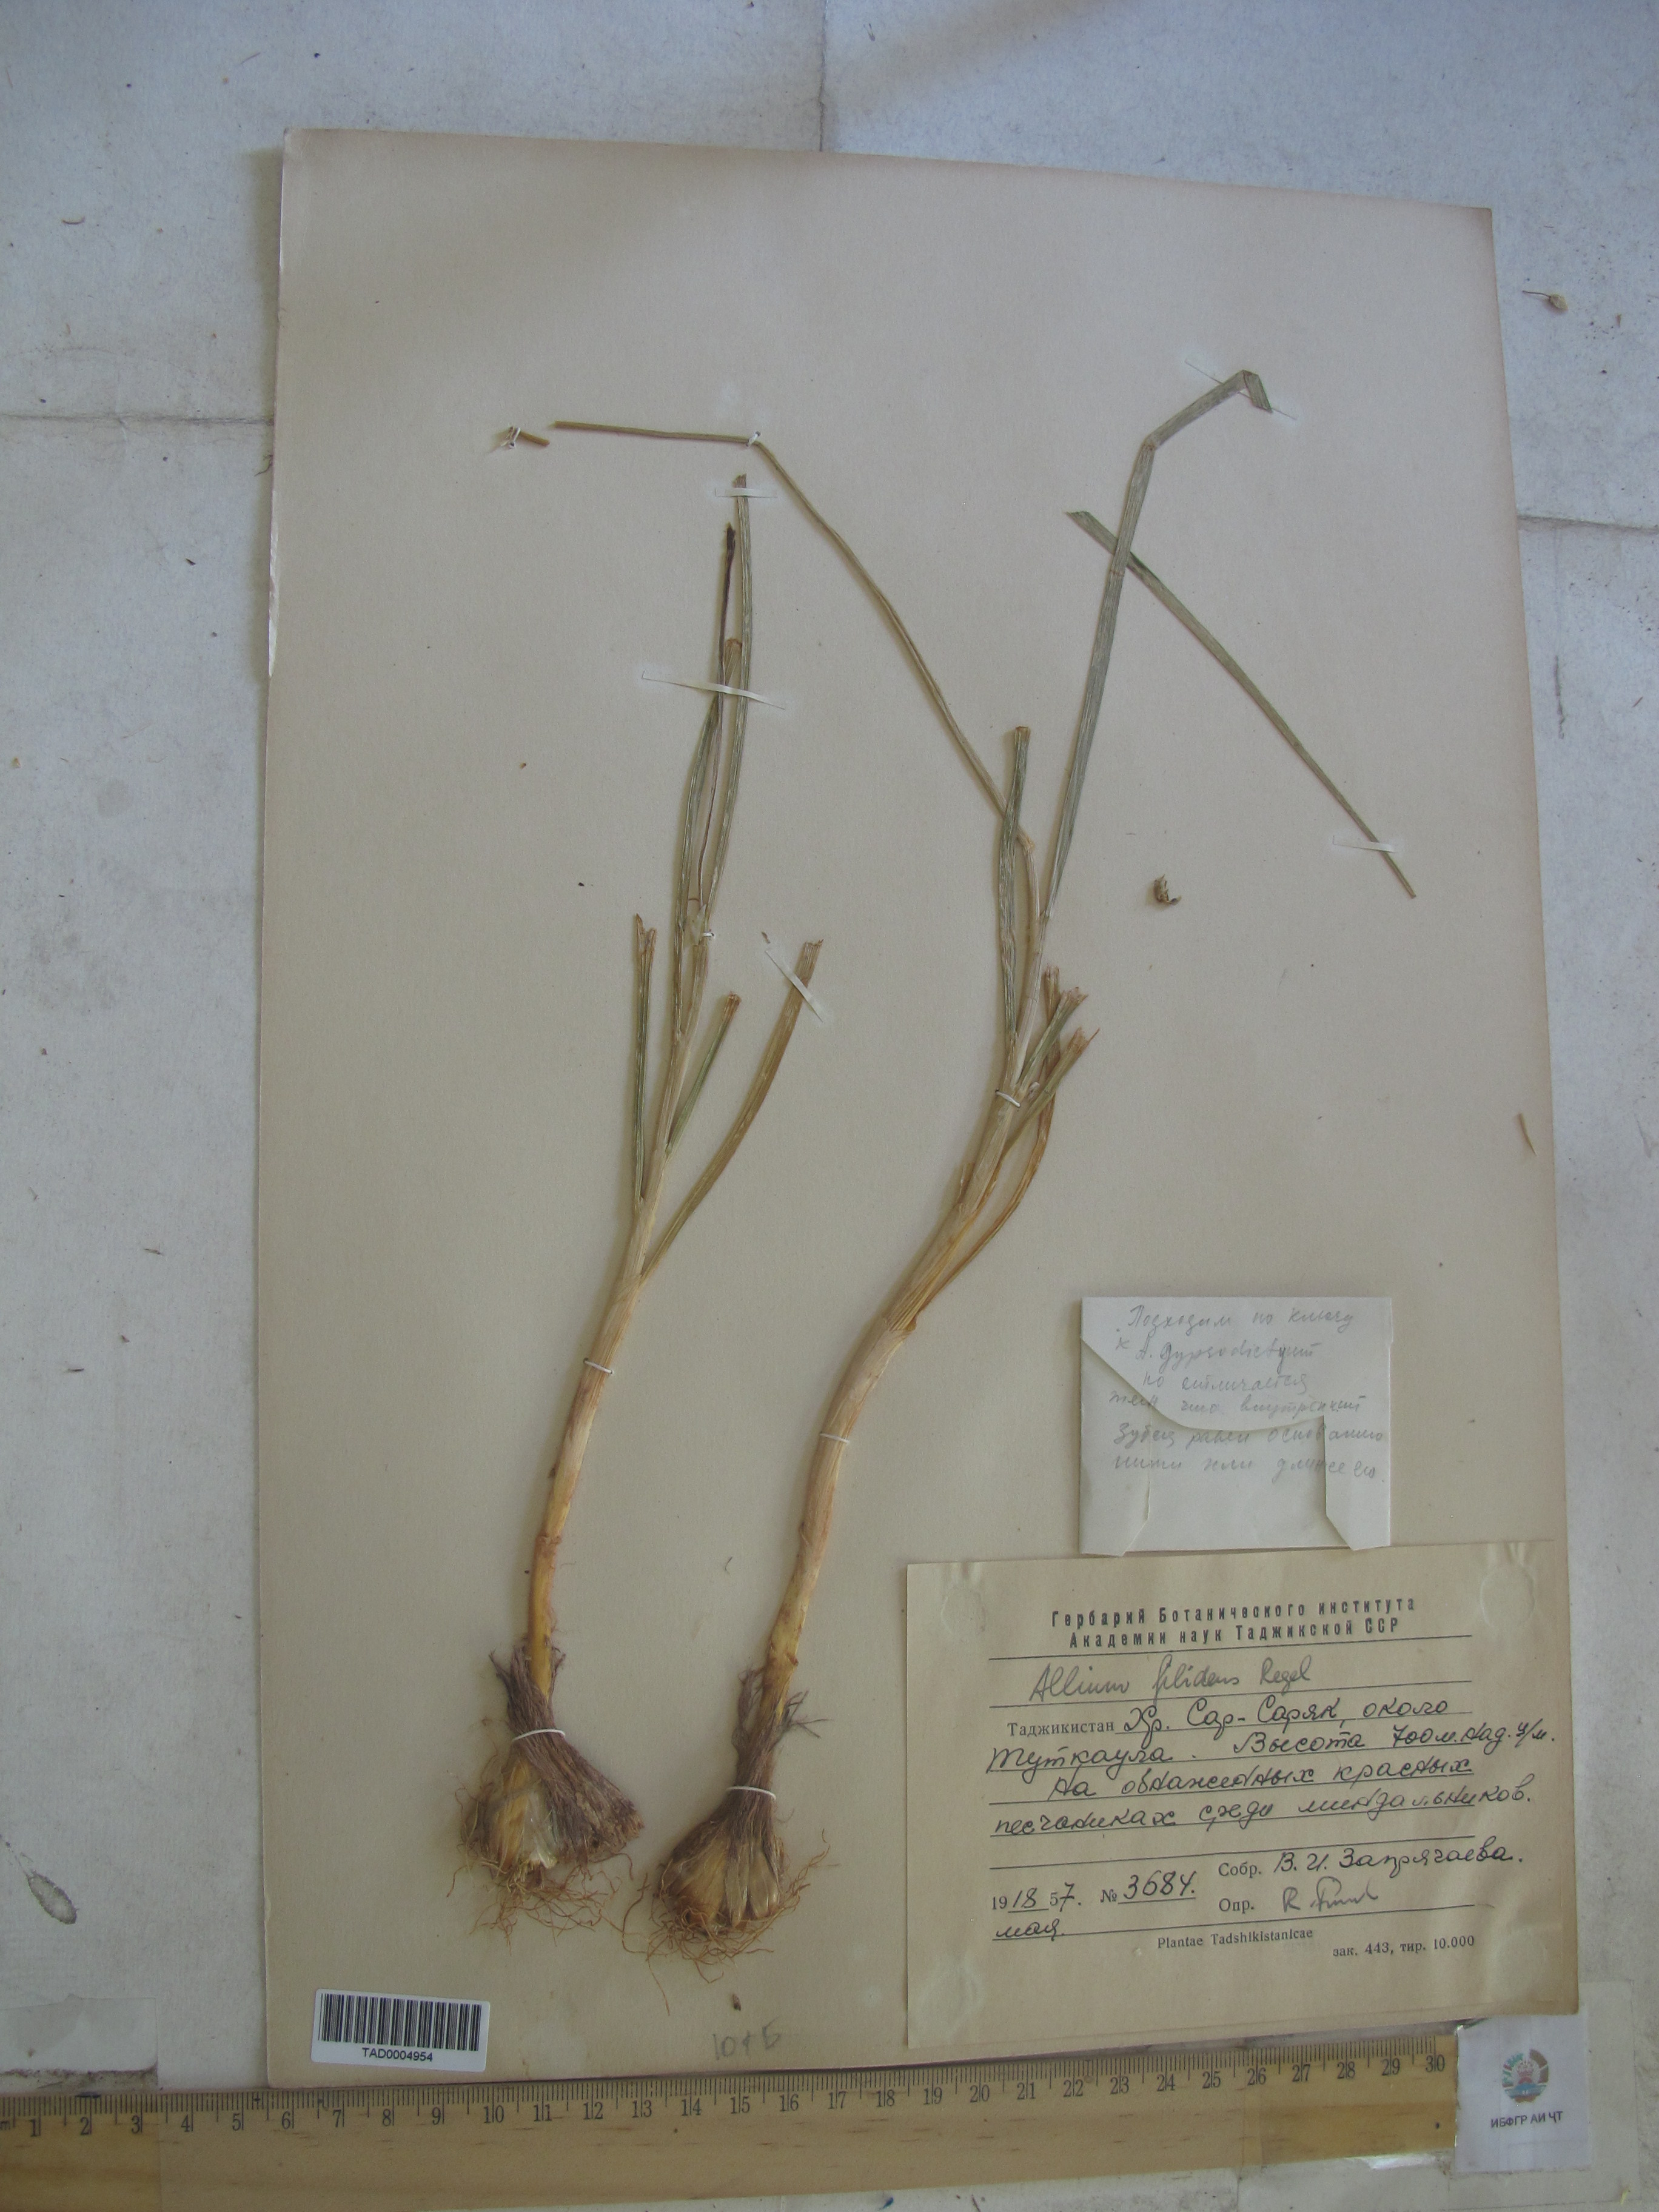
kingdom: Plantae
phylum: Tracheophyta
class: Liliopsida
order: Asparagales
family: Amaryllidaceae
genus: Allium
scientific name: Allium filidens
